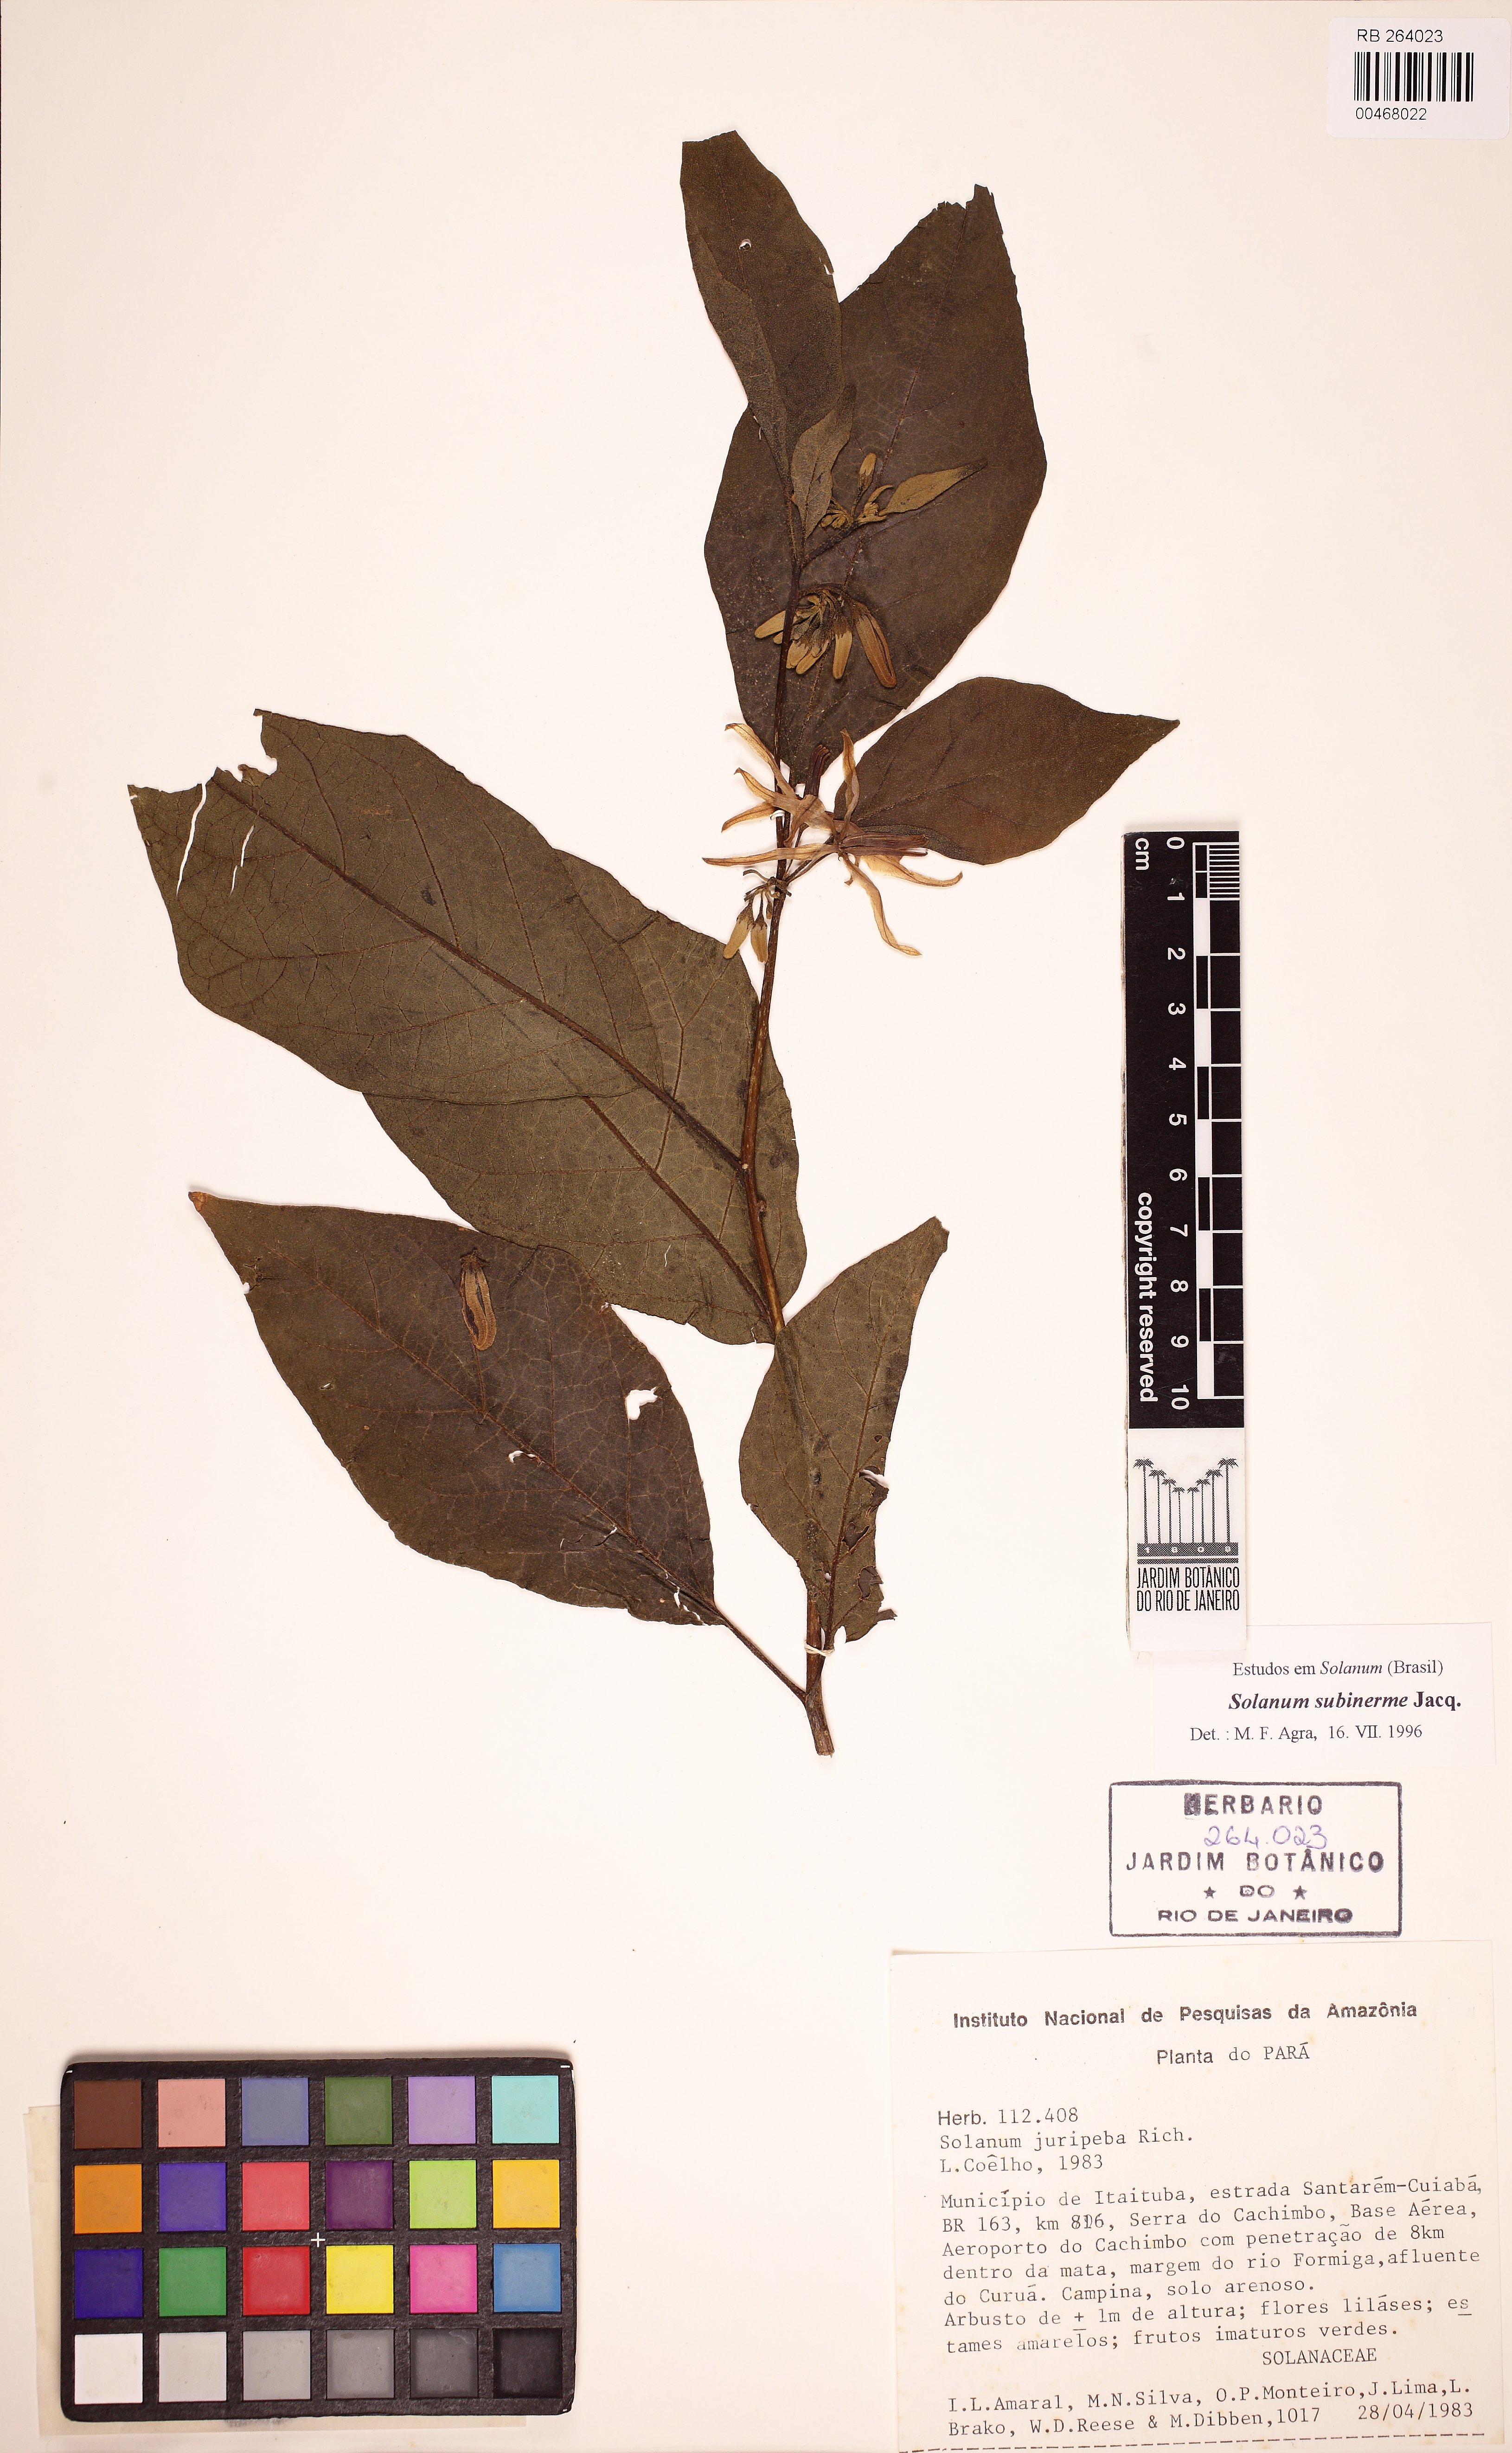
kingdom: Plantae
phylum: Tracheophyta
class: Magnoliopsida
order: Solanales
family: Solanaceae
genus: Solanum
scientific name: Solanum subinerme
